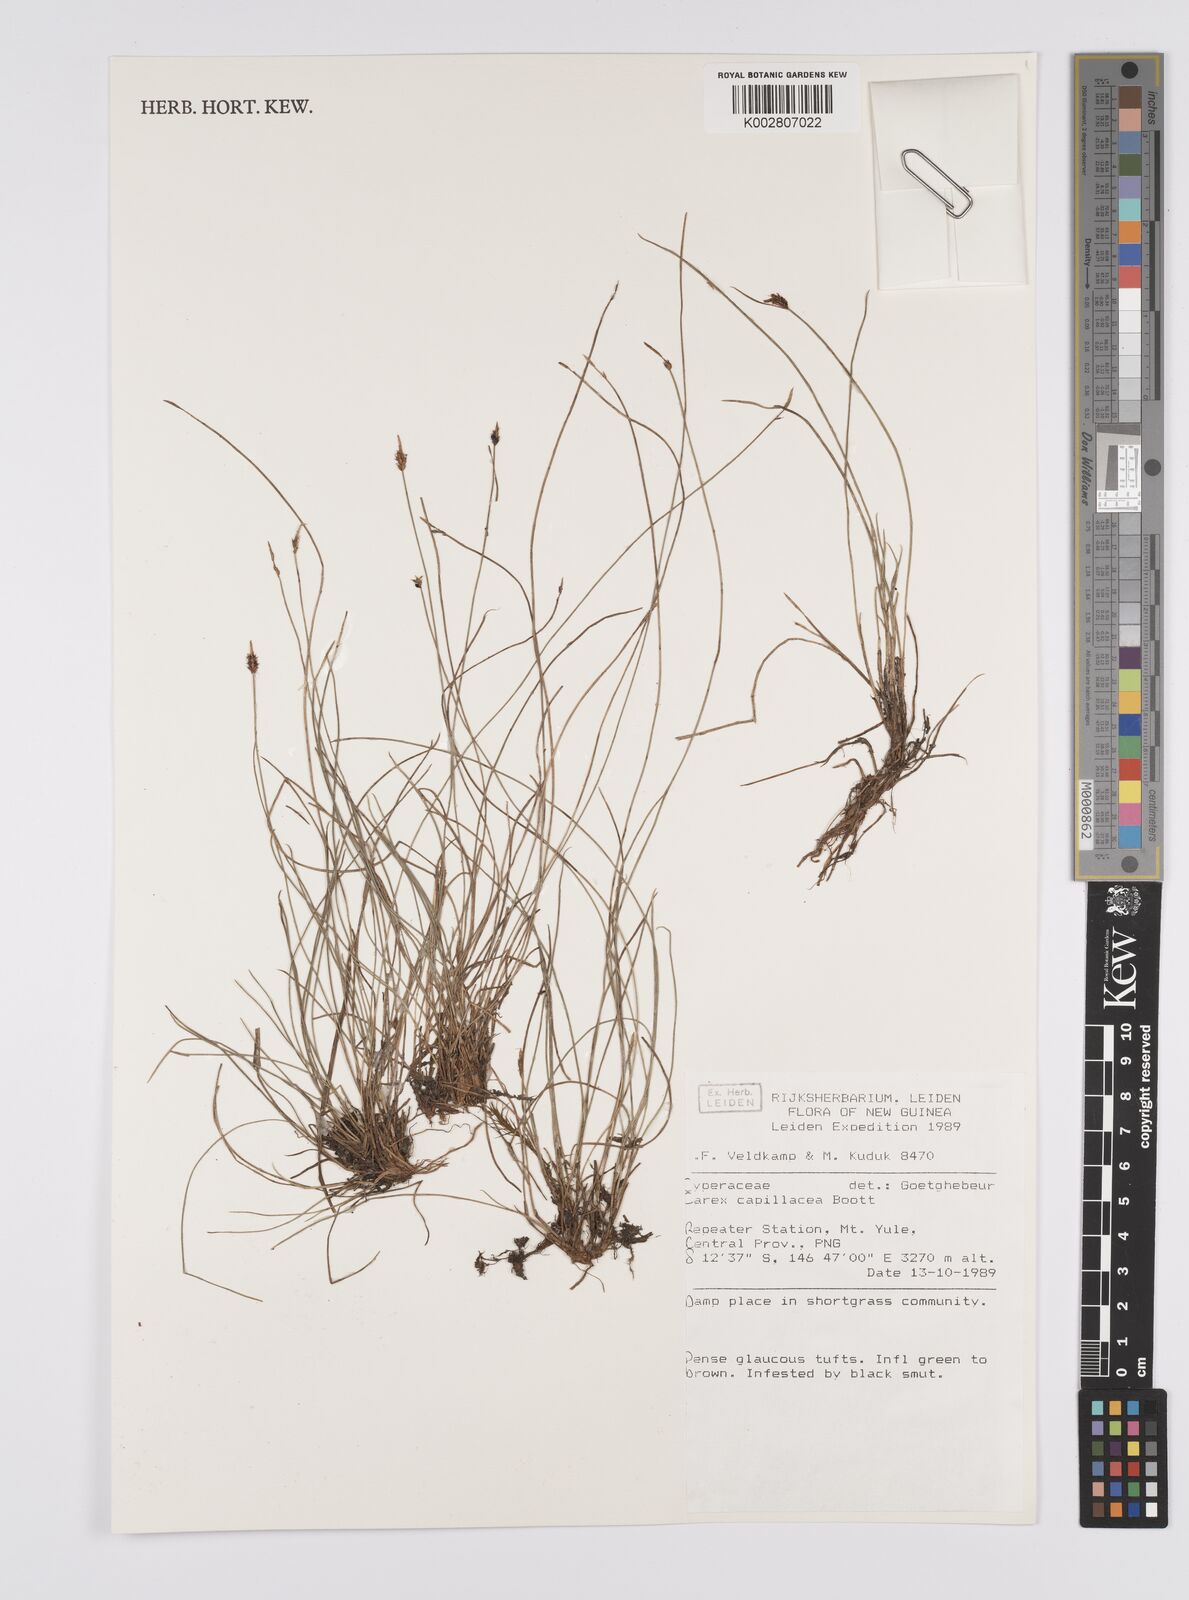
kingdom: Plantae
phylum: Tracheophyta
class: Liliopsida
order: Poales
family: Cyperaceae
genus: Carex
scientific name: Carex capillacea
